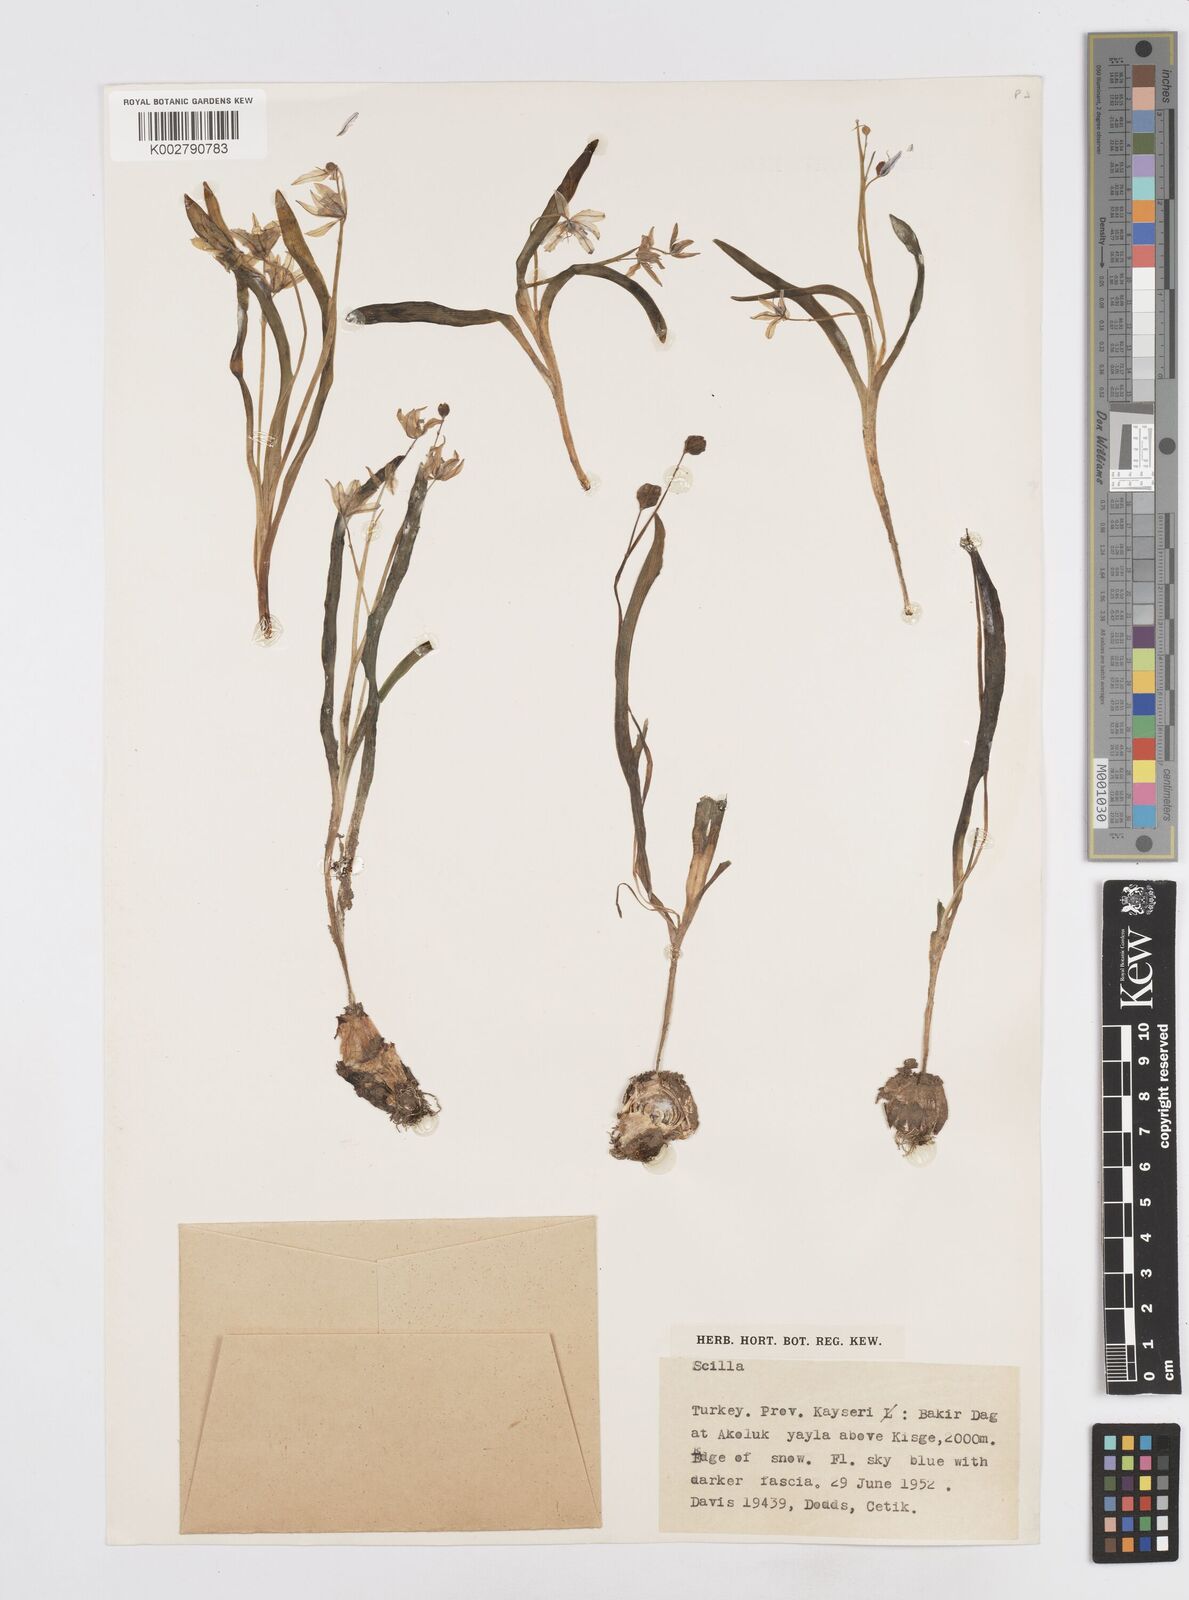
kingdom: Plantae
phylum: Tracheophyta
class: Liliopsida
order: Asparagales
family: Asparagaceae
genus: Scilla
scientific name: Scilla siberica
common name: Siberian squill
